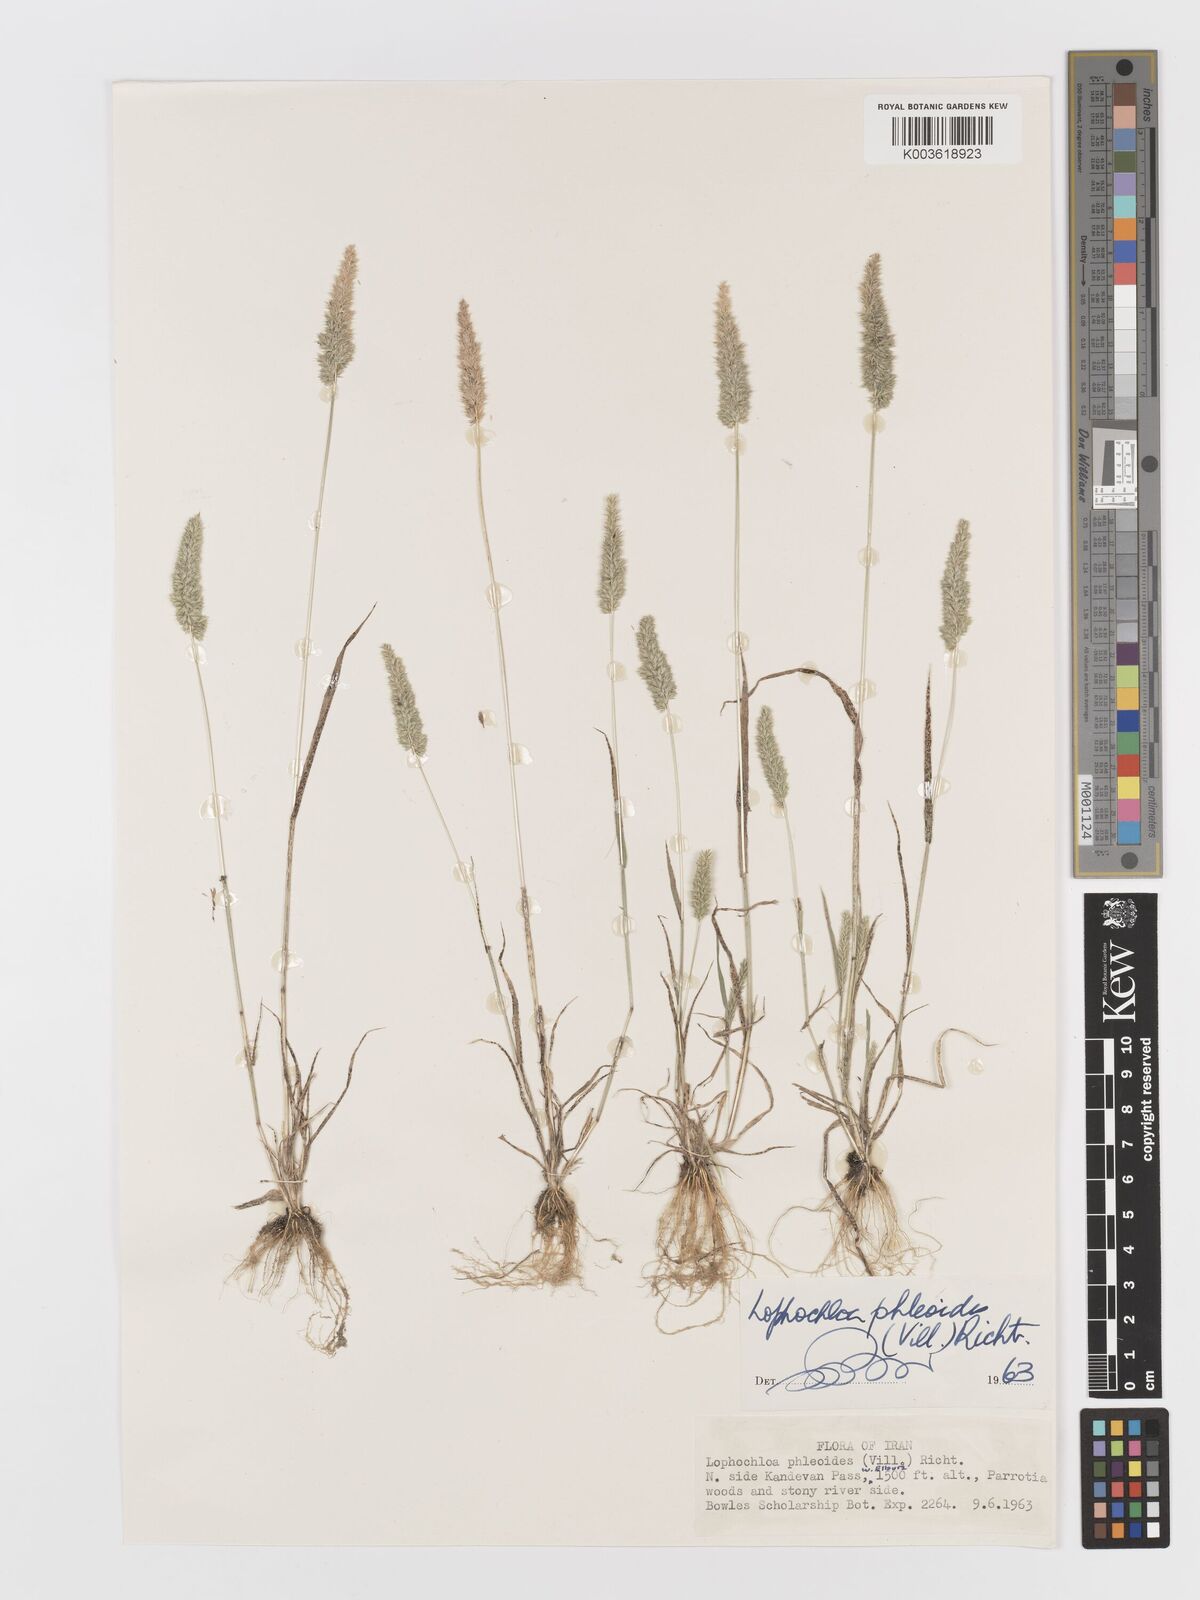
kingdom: Plantae
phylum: Tracheophyta
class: Liliopsida
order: Poales
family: Poaceae
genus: Rostraria
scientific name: Rostraria cristata
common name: Mediterranean hair-grass
